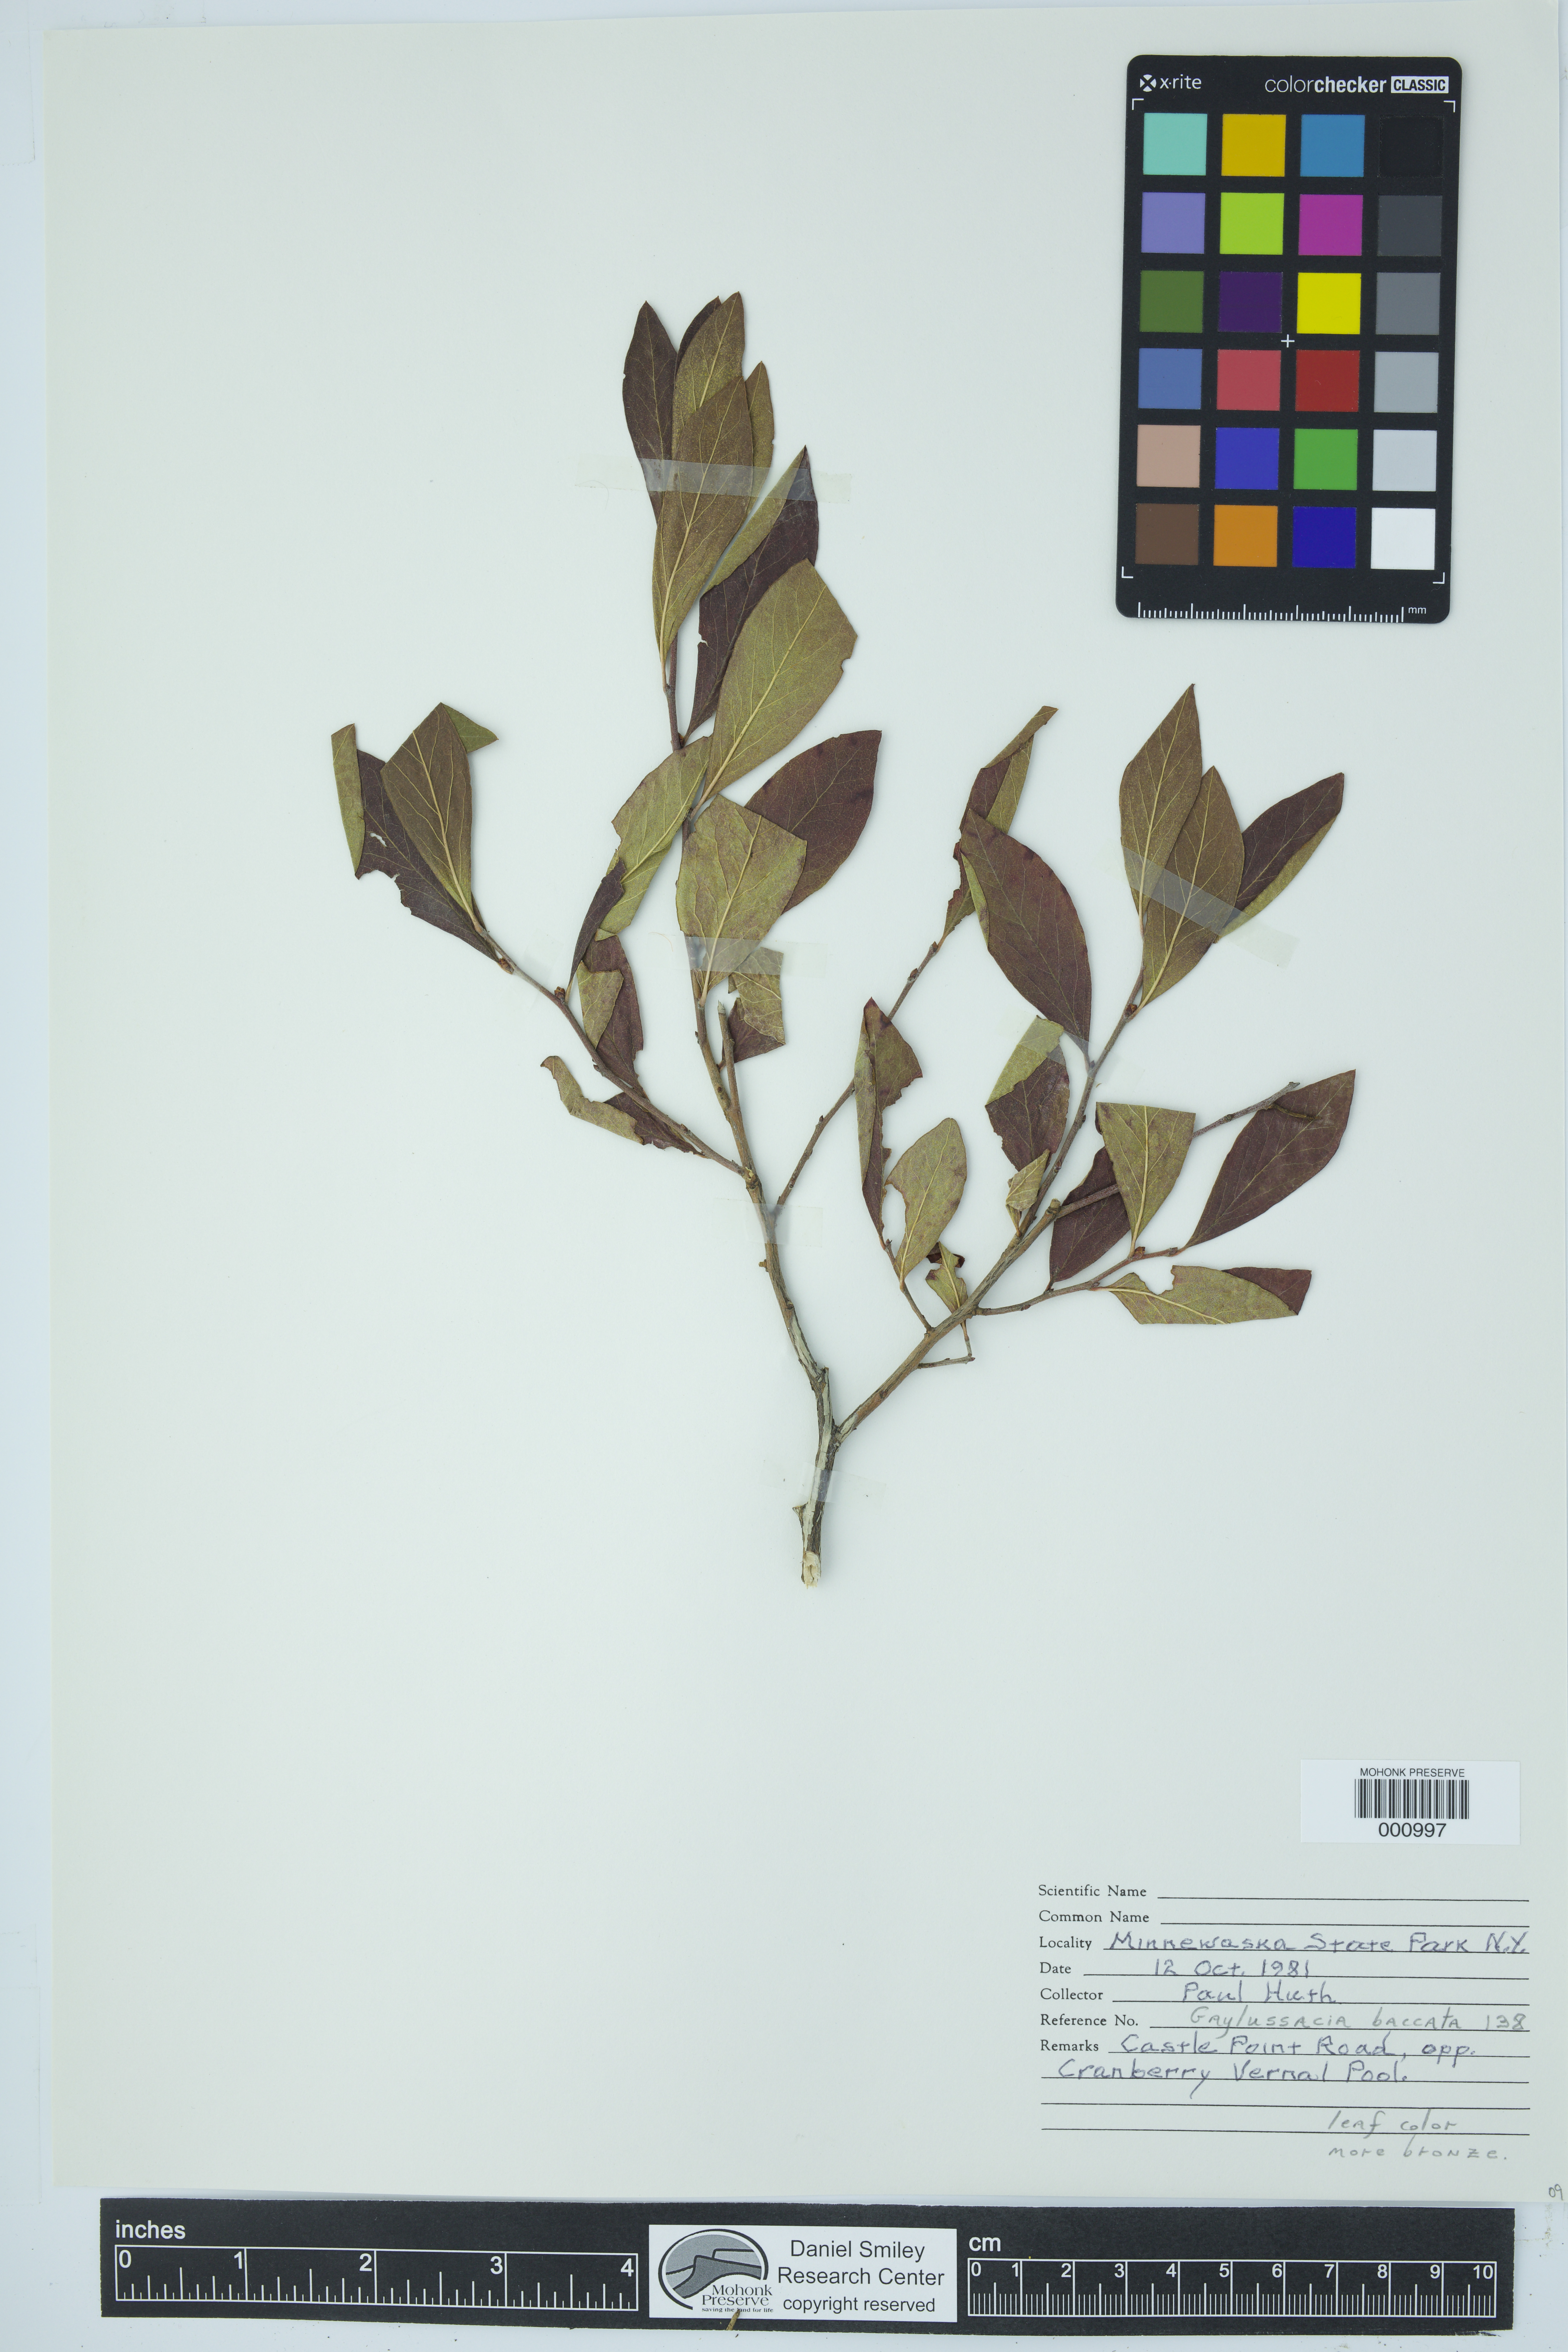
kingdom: Plantae
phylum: Tracheophyta
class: Magnoliopsida
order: Ericales
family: Ericaceae
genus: Gaylussacia
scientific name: Gaylussacia baccata
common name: Black huckleberry
